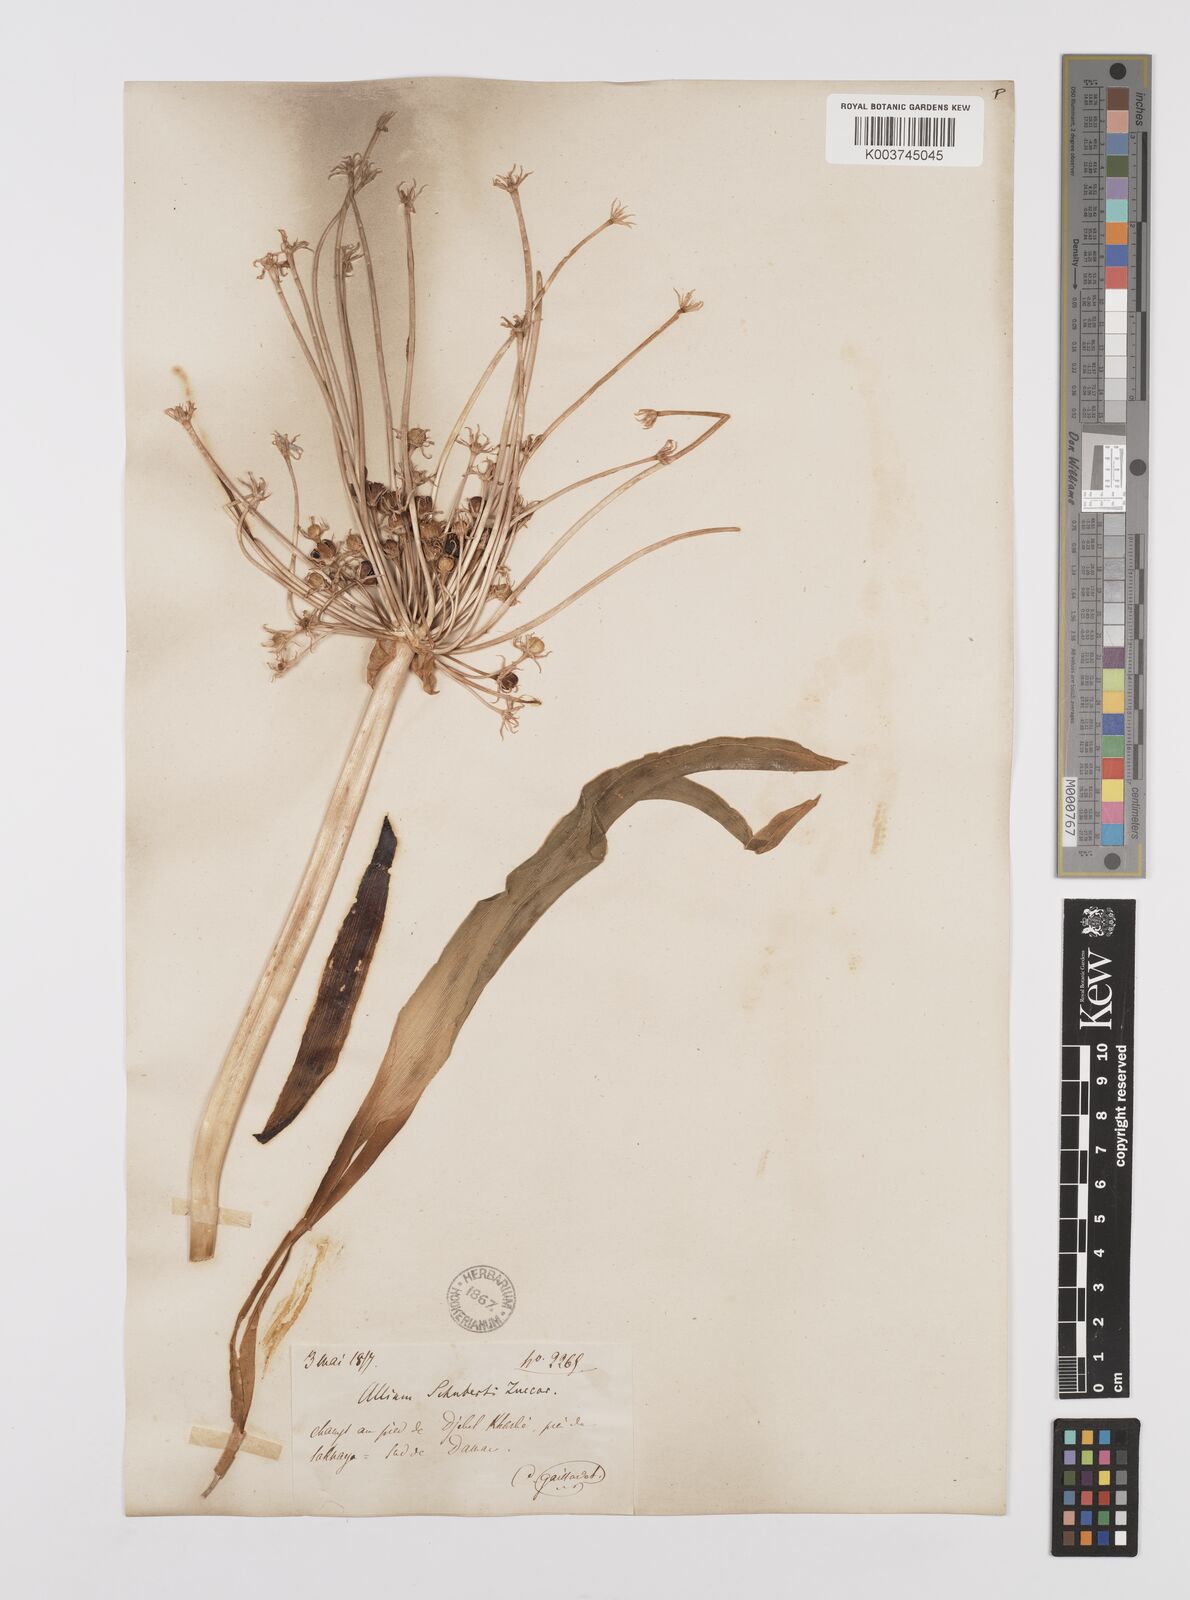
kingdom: Plantae
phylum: Tracheophyta
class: Liliopsida
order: Asparagales
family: Amaryllidaceae
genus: Allium
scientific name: Allium schubertii
